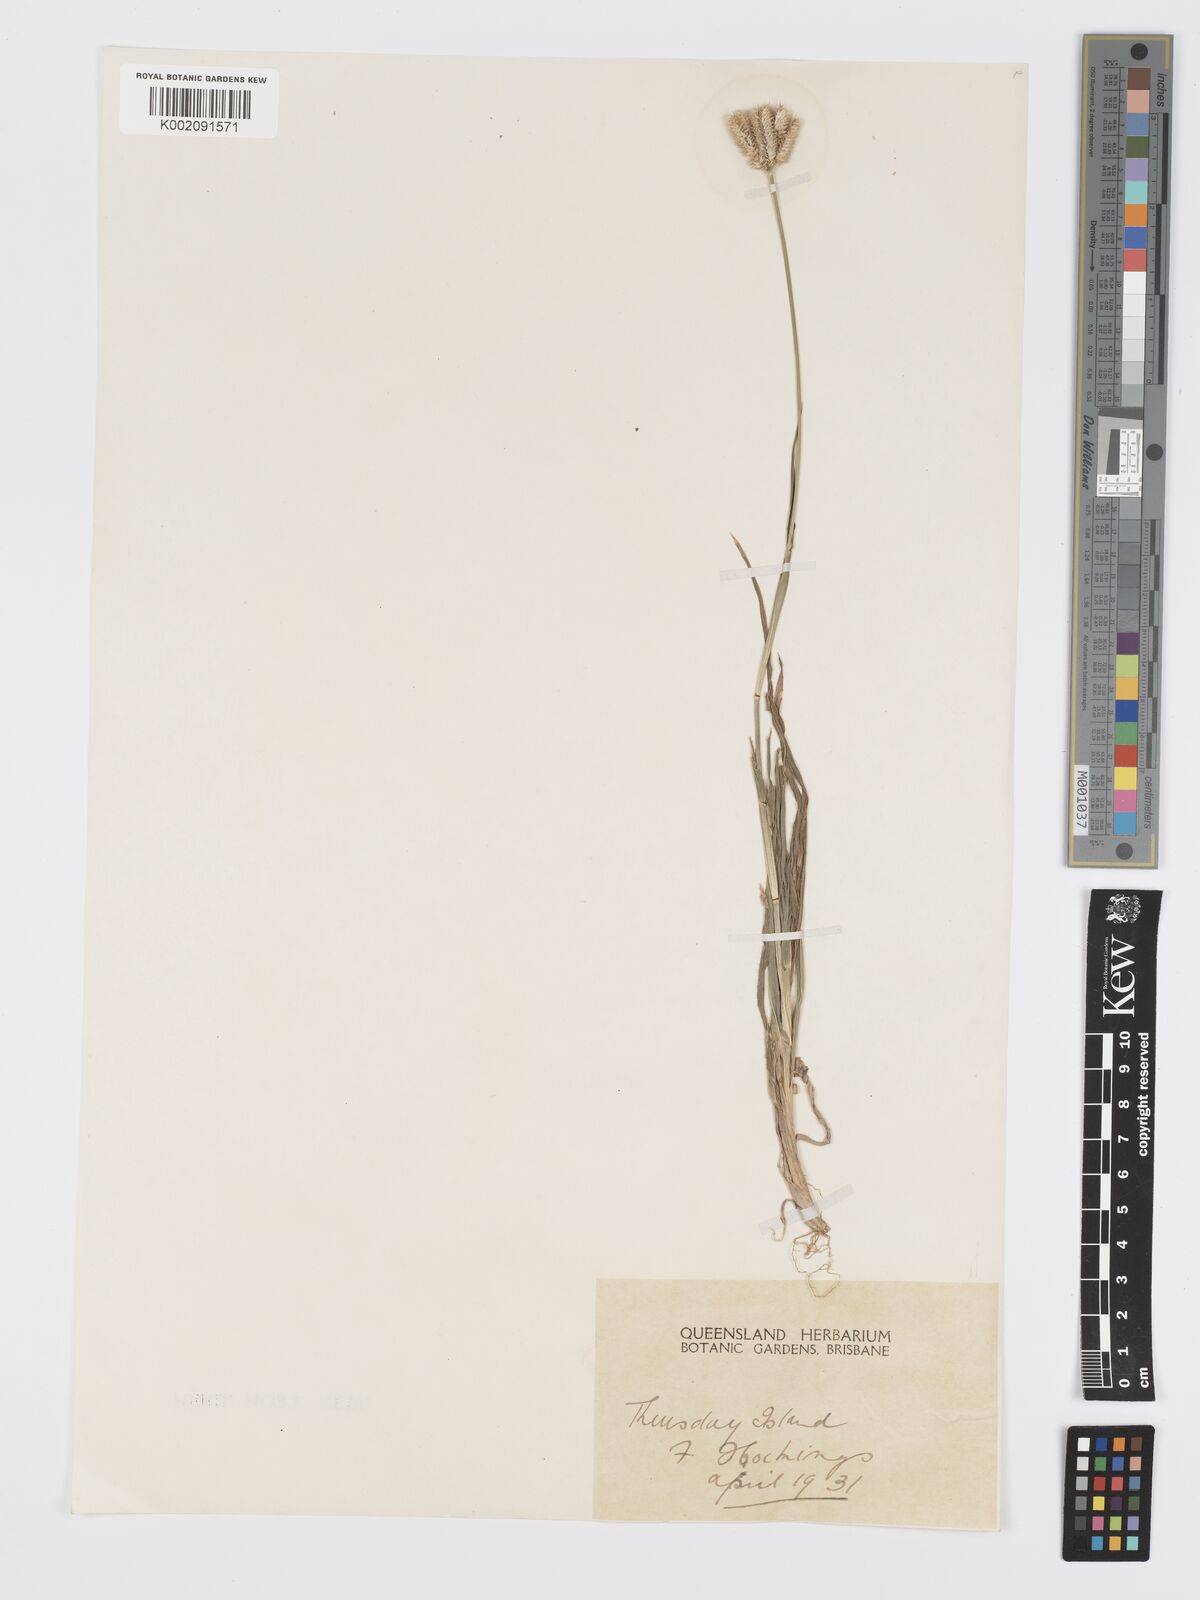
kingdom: Plantae
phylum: Tracheophyta
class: Liliopsida
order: Poales
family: Poaceae
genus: Dactyloctenium
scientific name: Dactyloctenium radulans
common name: Button-grass
